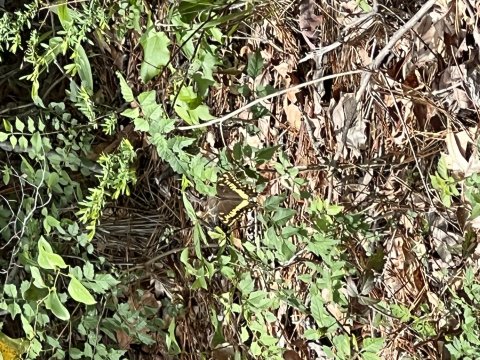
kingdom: Animalia
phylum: Arthropoda
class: Insecta
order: Lepidoptera
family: Papilionidae
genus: Pterourus
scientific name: Pterourus palamedes
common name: Palamedes Swallowtail
